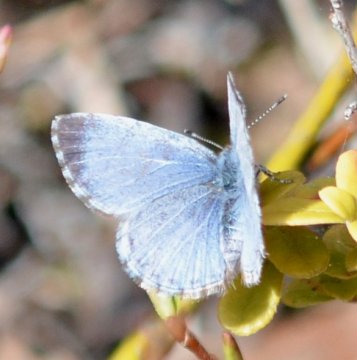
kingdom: Animalia
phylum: Arthropoda
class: Insecta
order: Lepidoptera
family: Lycaenidae
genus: Celastrina
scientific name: Celastrina lucia
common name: Northern Spring Azure
